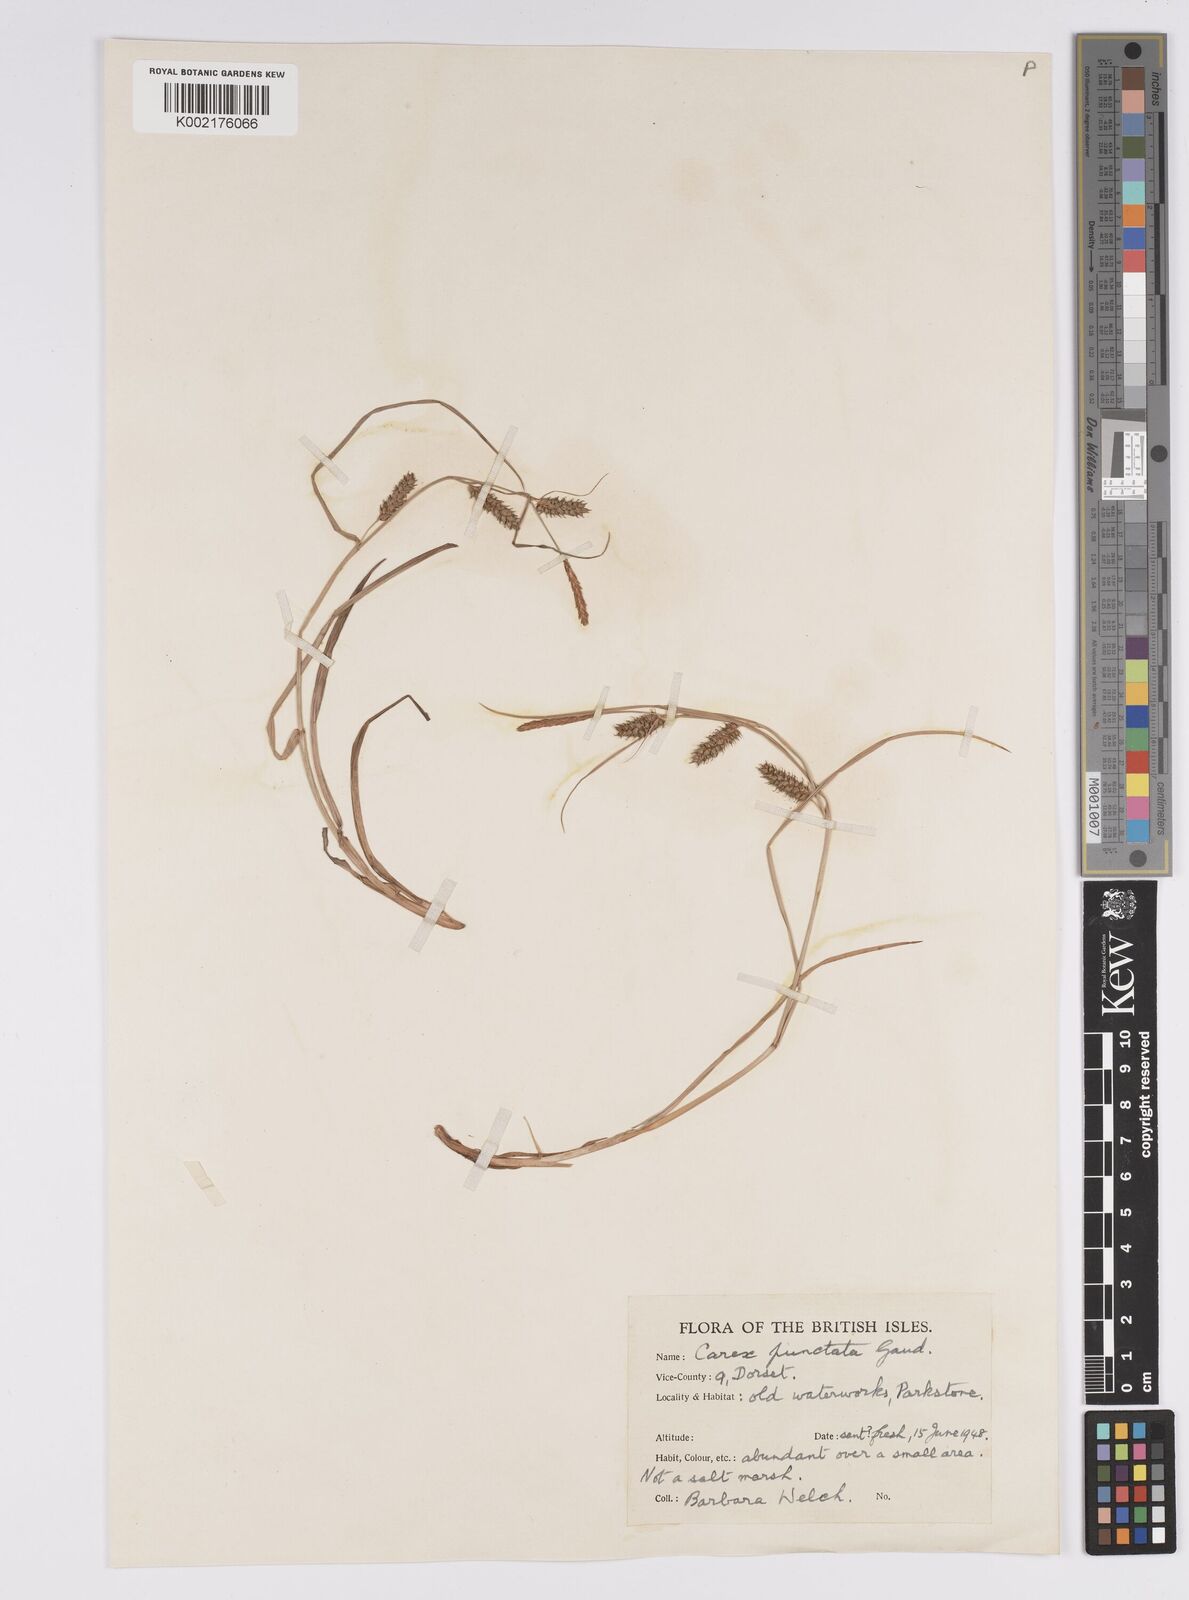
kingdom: Plantae
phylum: Tracheophyta
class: Liliopsida
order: Poales
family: Cyperaceae
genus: Carex
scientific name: Carex punctata
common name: Dotted sedge
